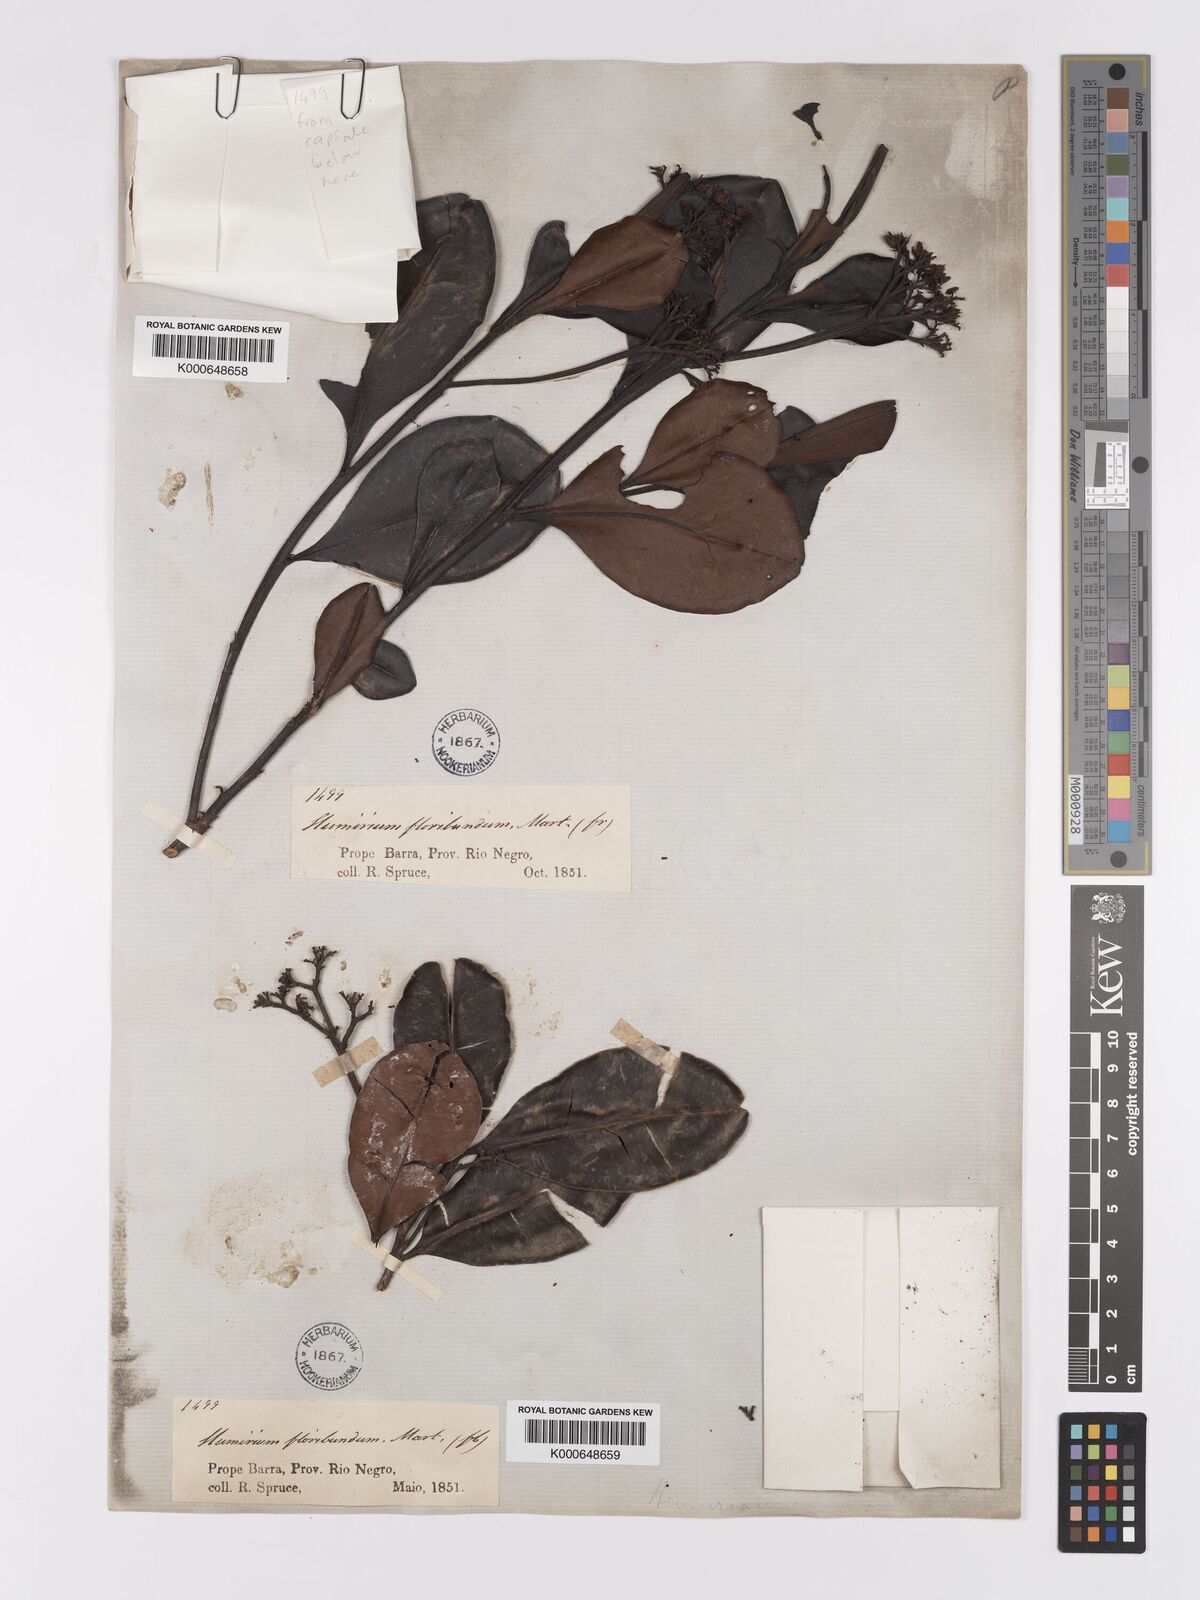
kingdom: Plantae
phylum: Tracheophyta
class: Magnoliopsida
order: Malpighiales
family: Humiriaceae
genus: Humiria
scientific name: Humiria balsamifera
